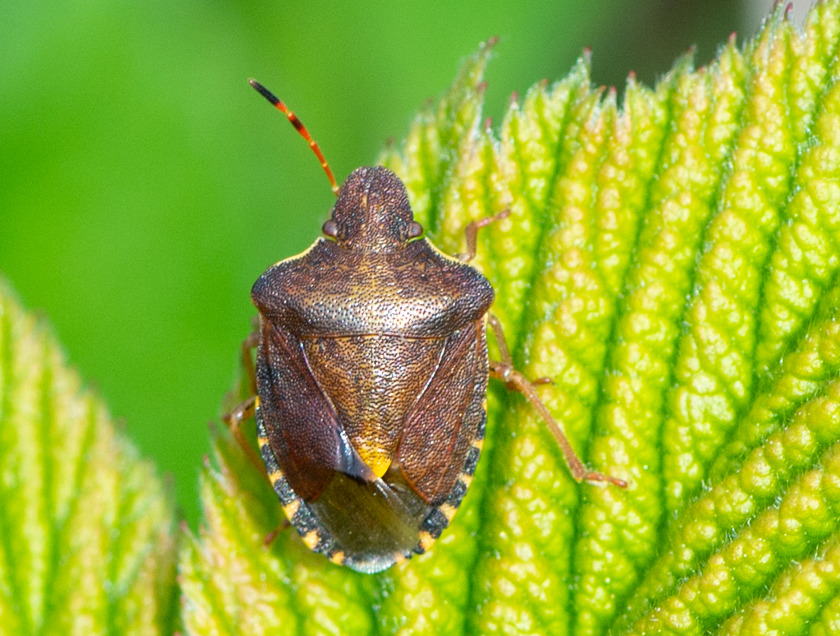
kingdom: Animalia
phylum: Arthropoda
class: Insecta
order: Hemiptera
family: Pentatomidae
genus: Holcostethus
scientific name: Holcostethus strictus
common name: Lille bærtæge
